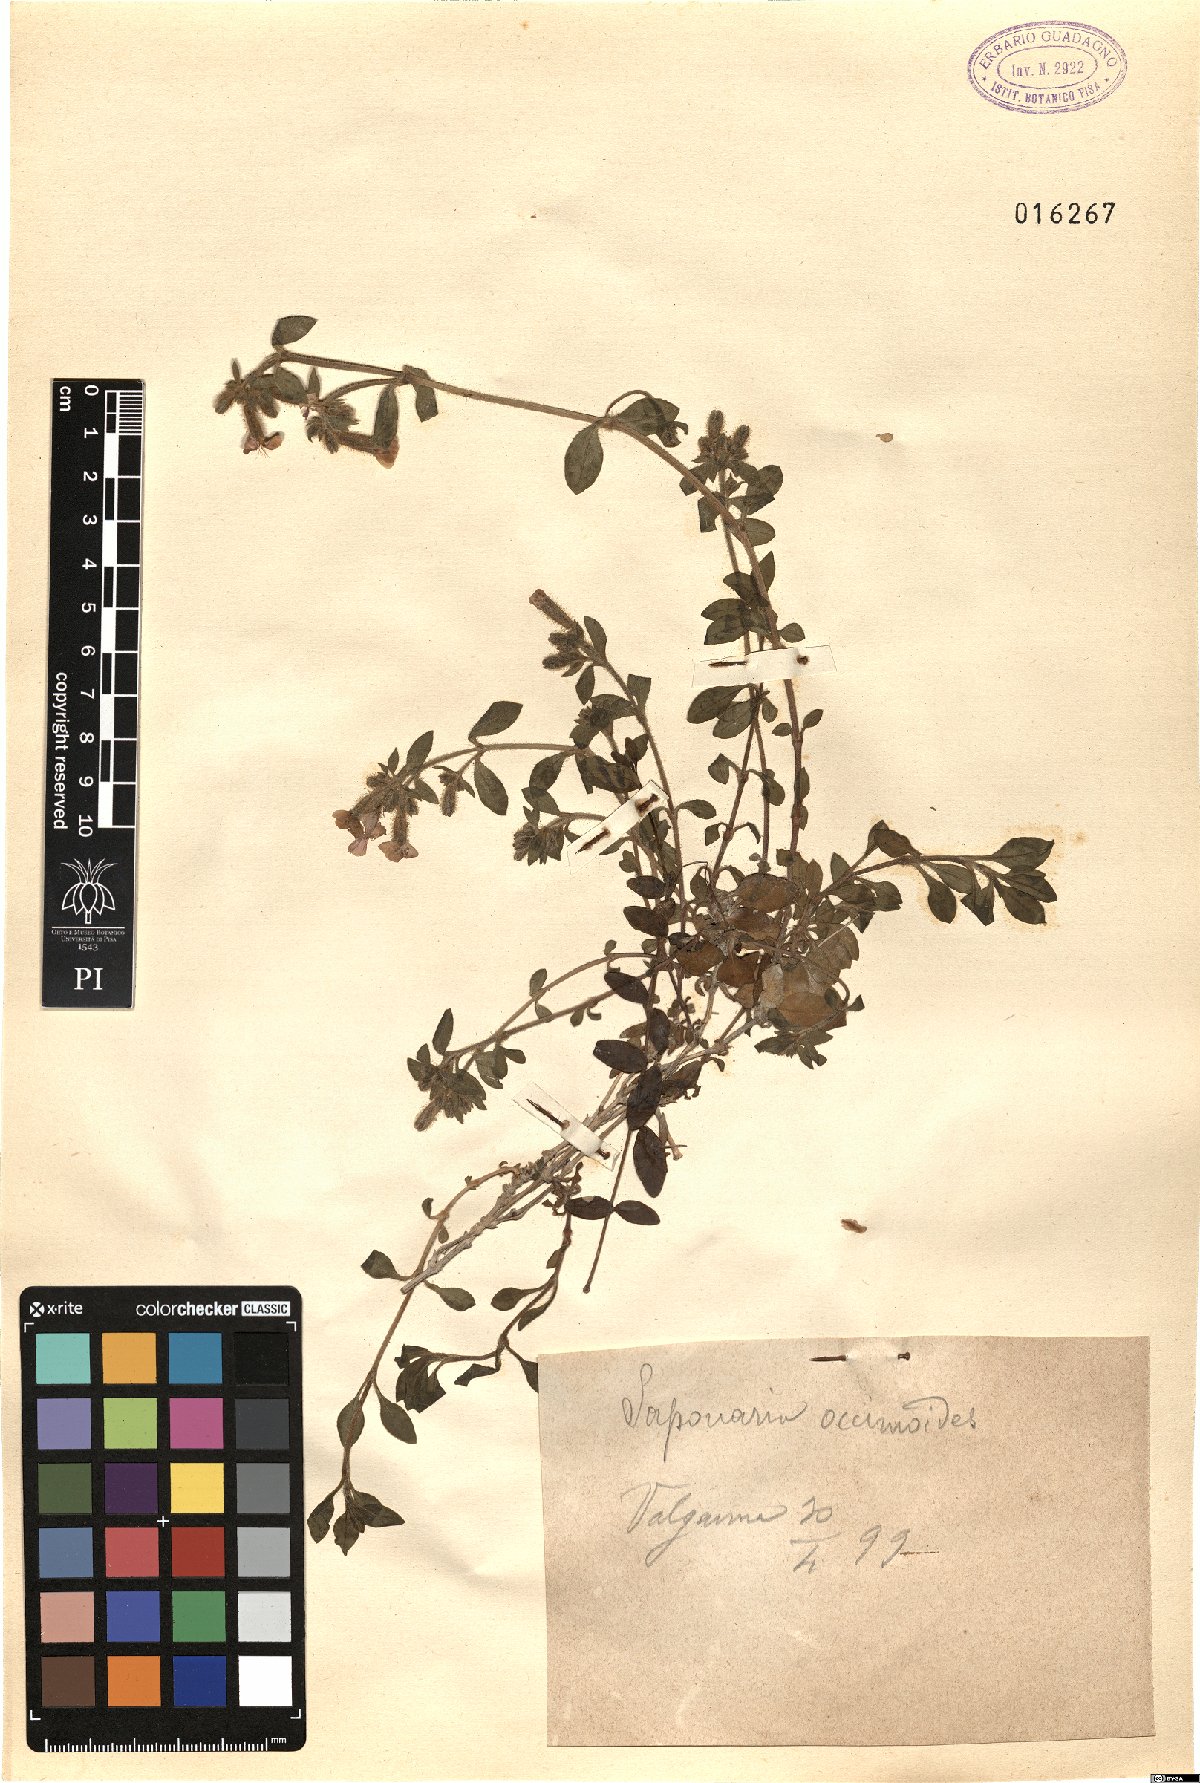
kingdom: Plantae
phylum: Tracheophyta
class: Magnoliopsida
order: Caryophyllales
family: Caryophyllaceae
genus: Saponaria
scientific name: Saponaria ocymoides
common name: Rock soapwort
